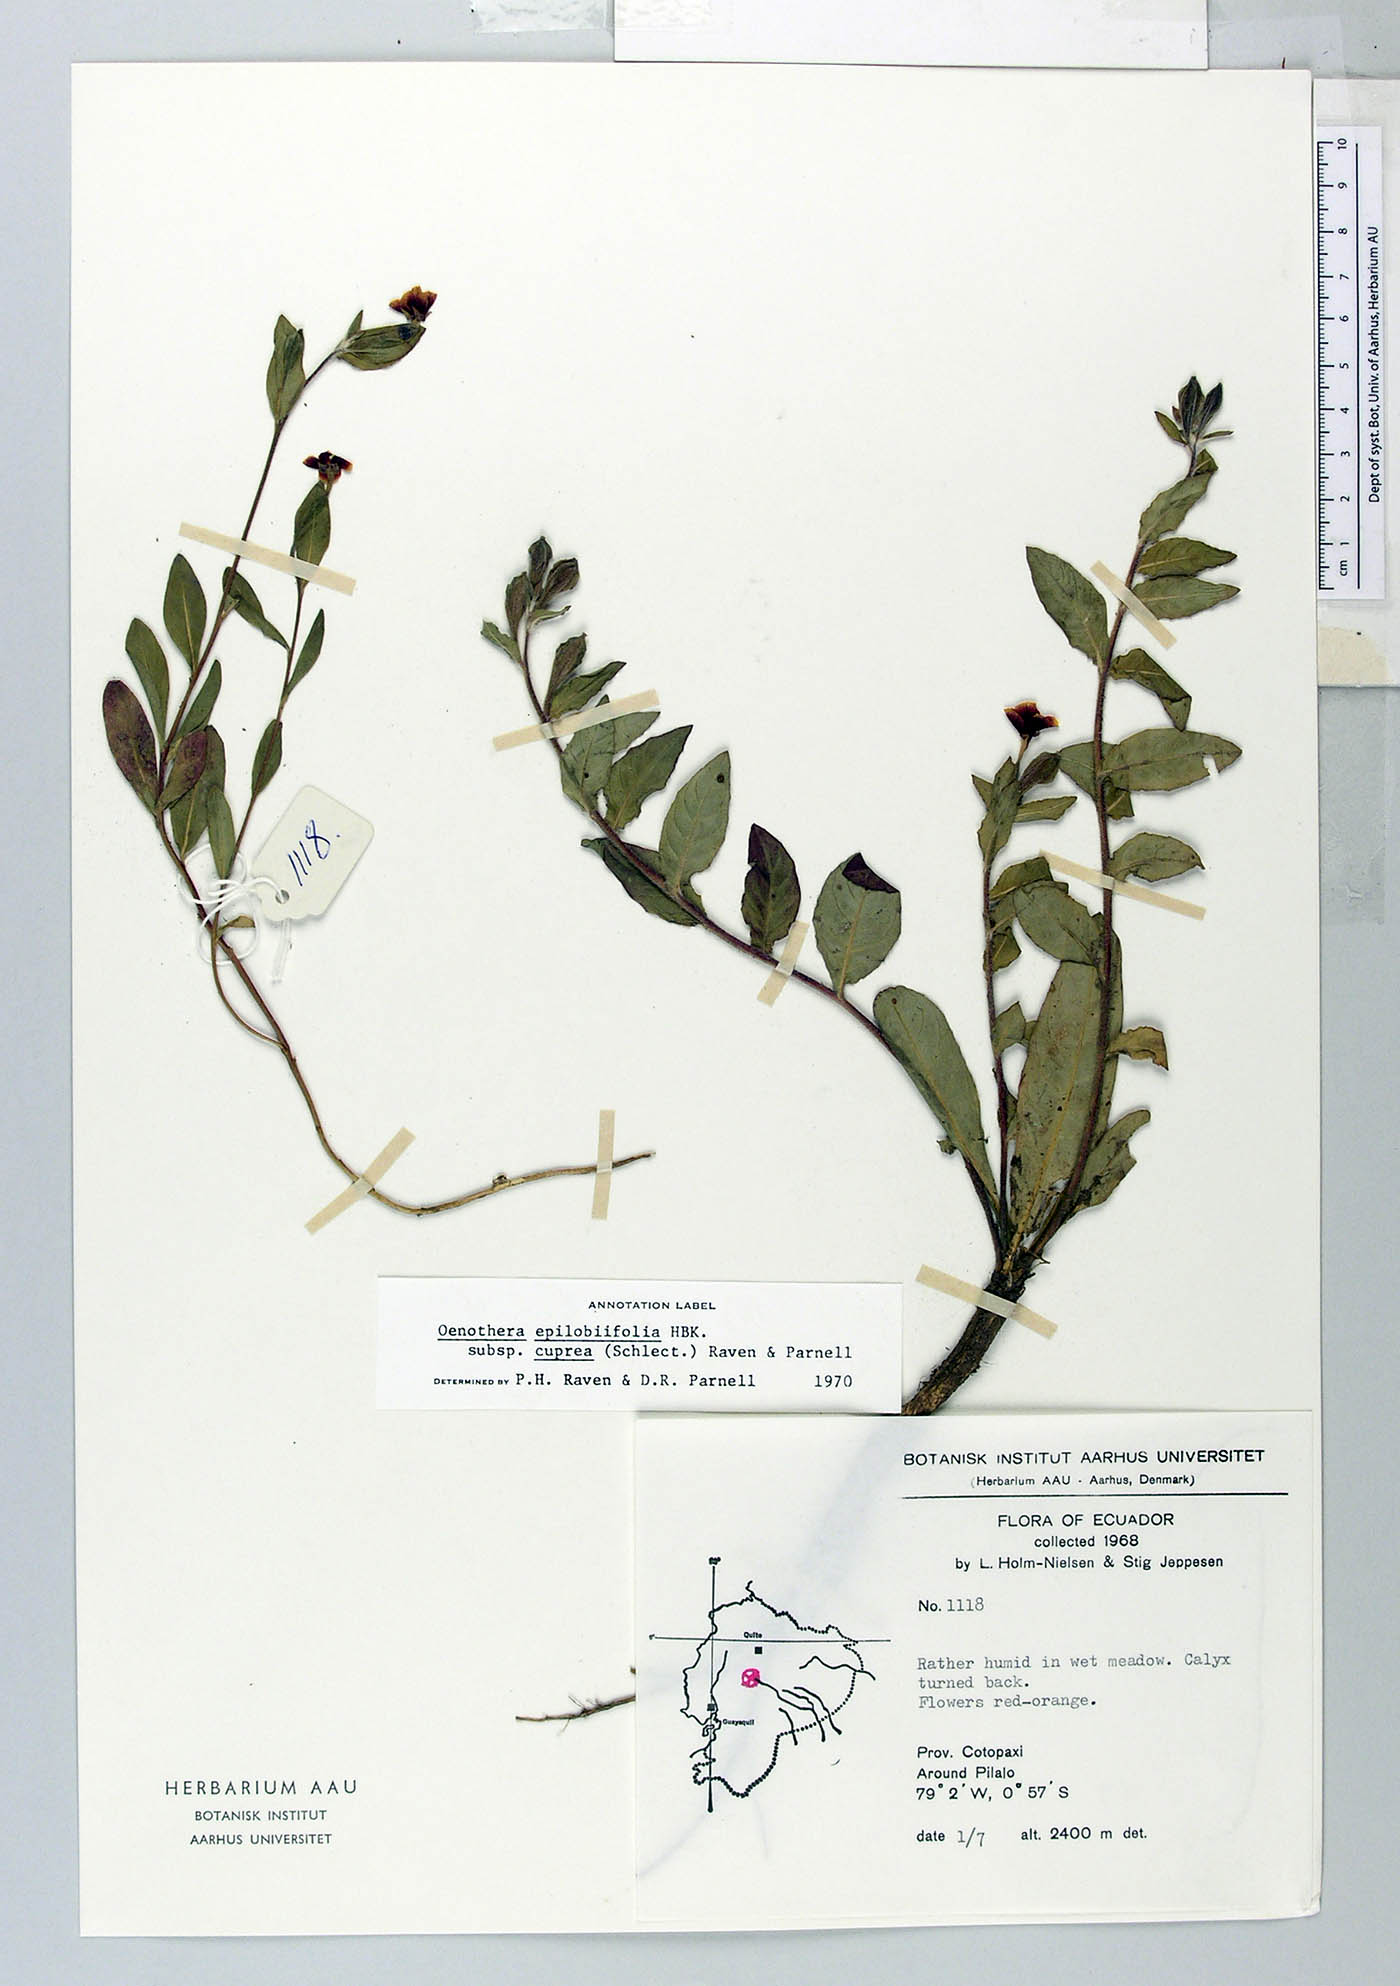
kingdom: Plantae
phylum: Tracheophyta
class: Magnoliopsida
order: Myrtales
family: Onagraceae
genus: Oenothera
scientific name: Oenothera epilobiifolia
